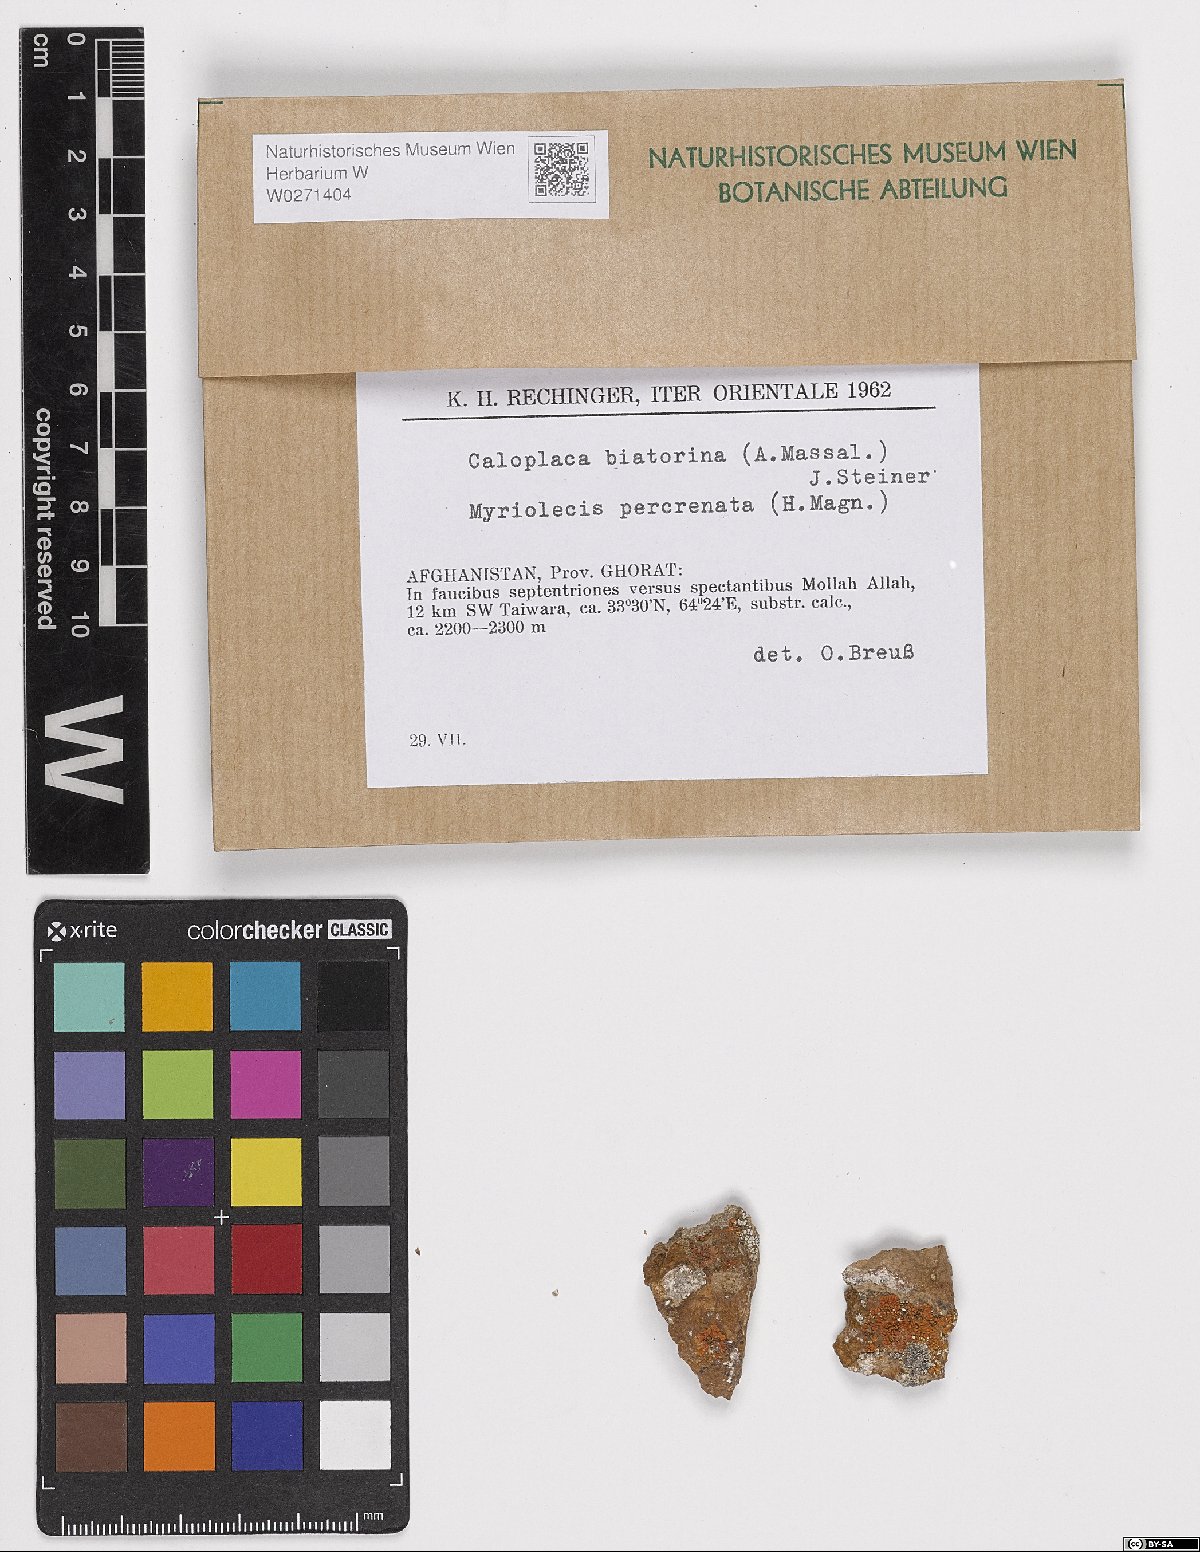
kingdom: Fungi
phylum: Ascomycota
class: Lecanoromycetes
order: Teloschistales
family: Teloschistaceae
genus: Calogaya
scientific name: Calogaya biatorina
